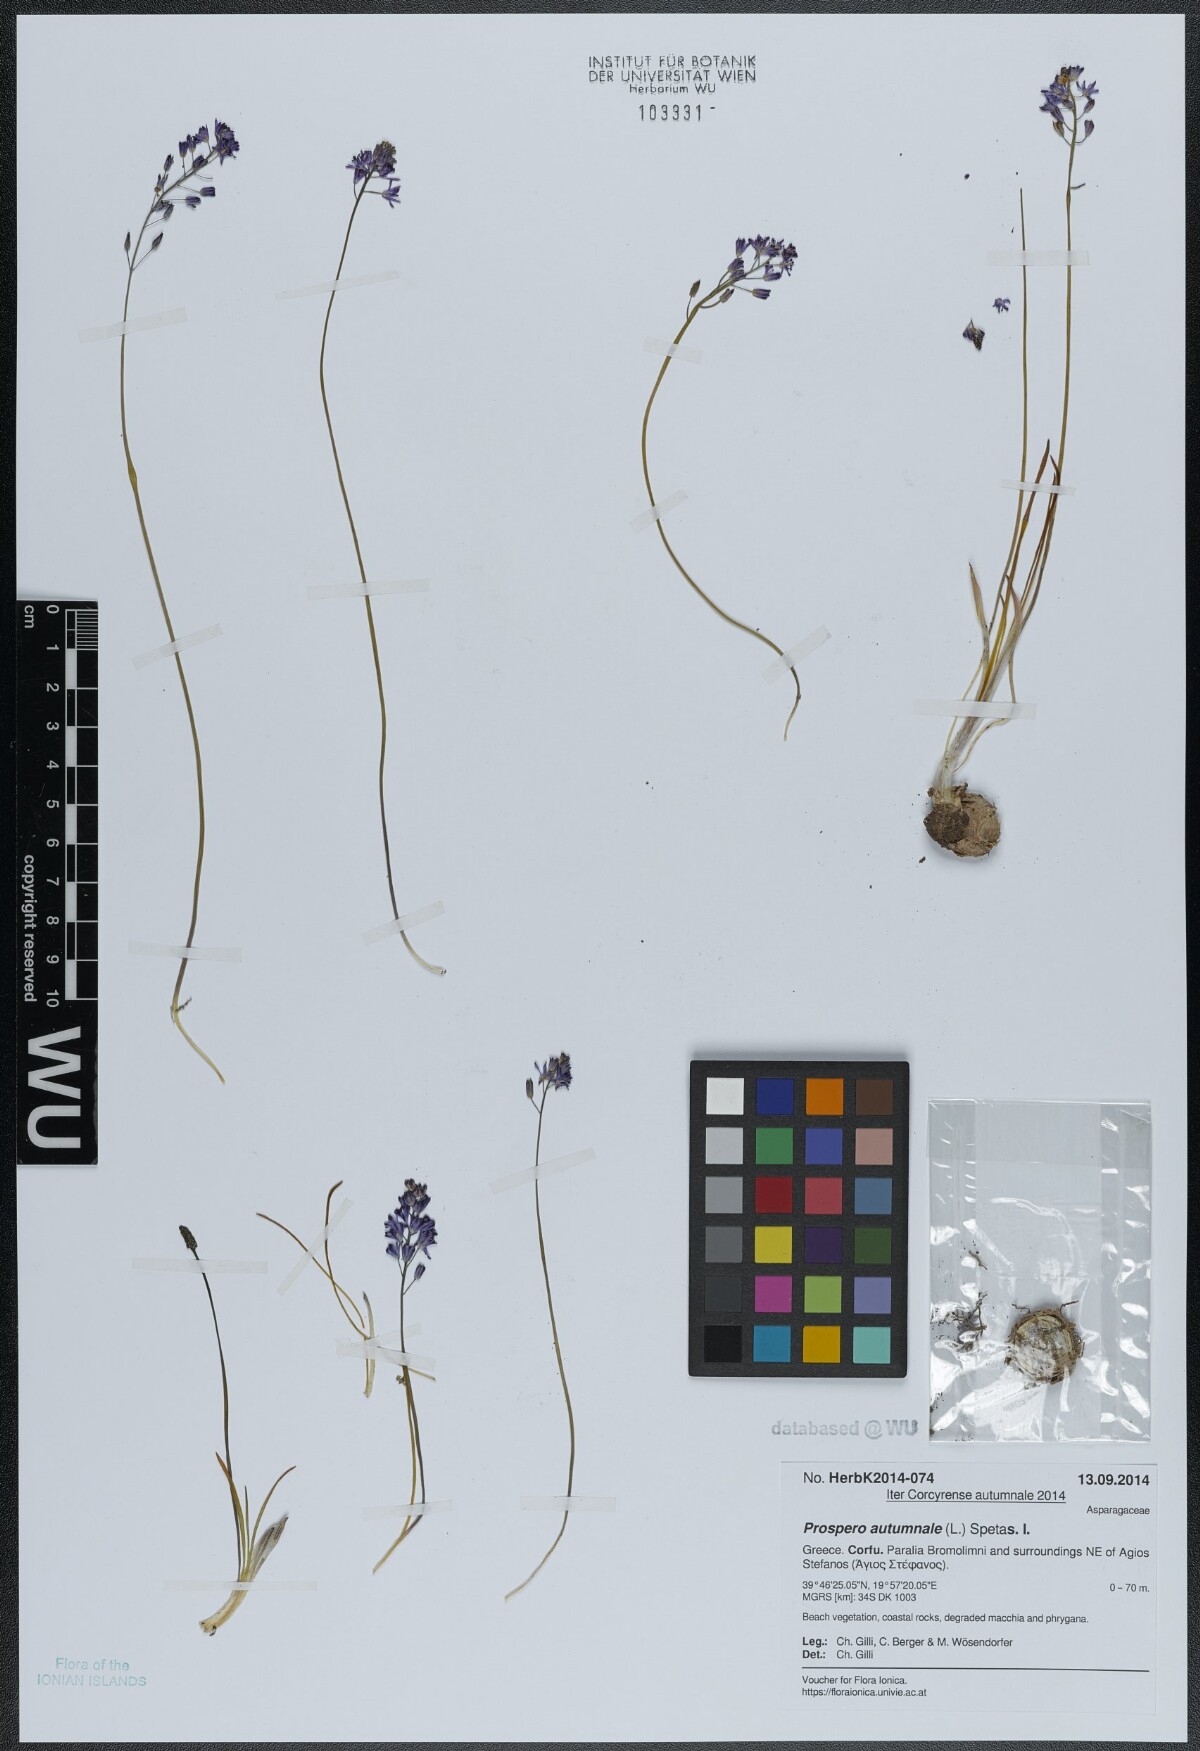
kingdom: Plantae
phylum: Tracheophyta
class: Liliopsida
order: Asparagales
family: Asparagaceae
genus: Prospero
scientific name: Prospero autumnale
